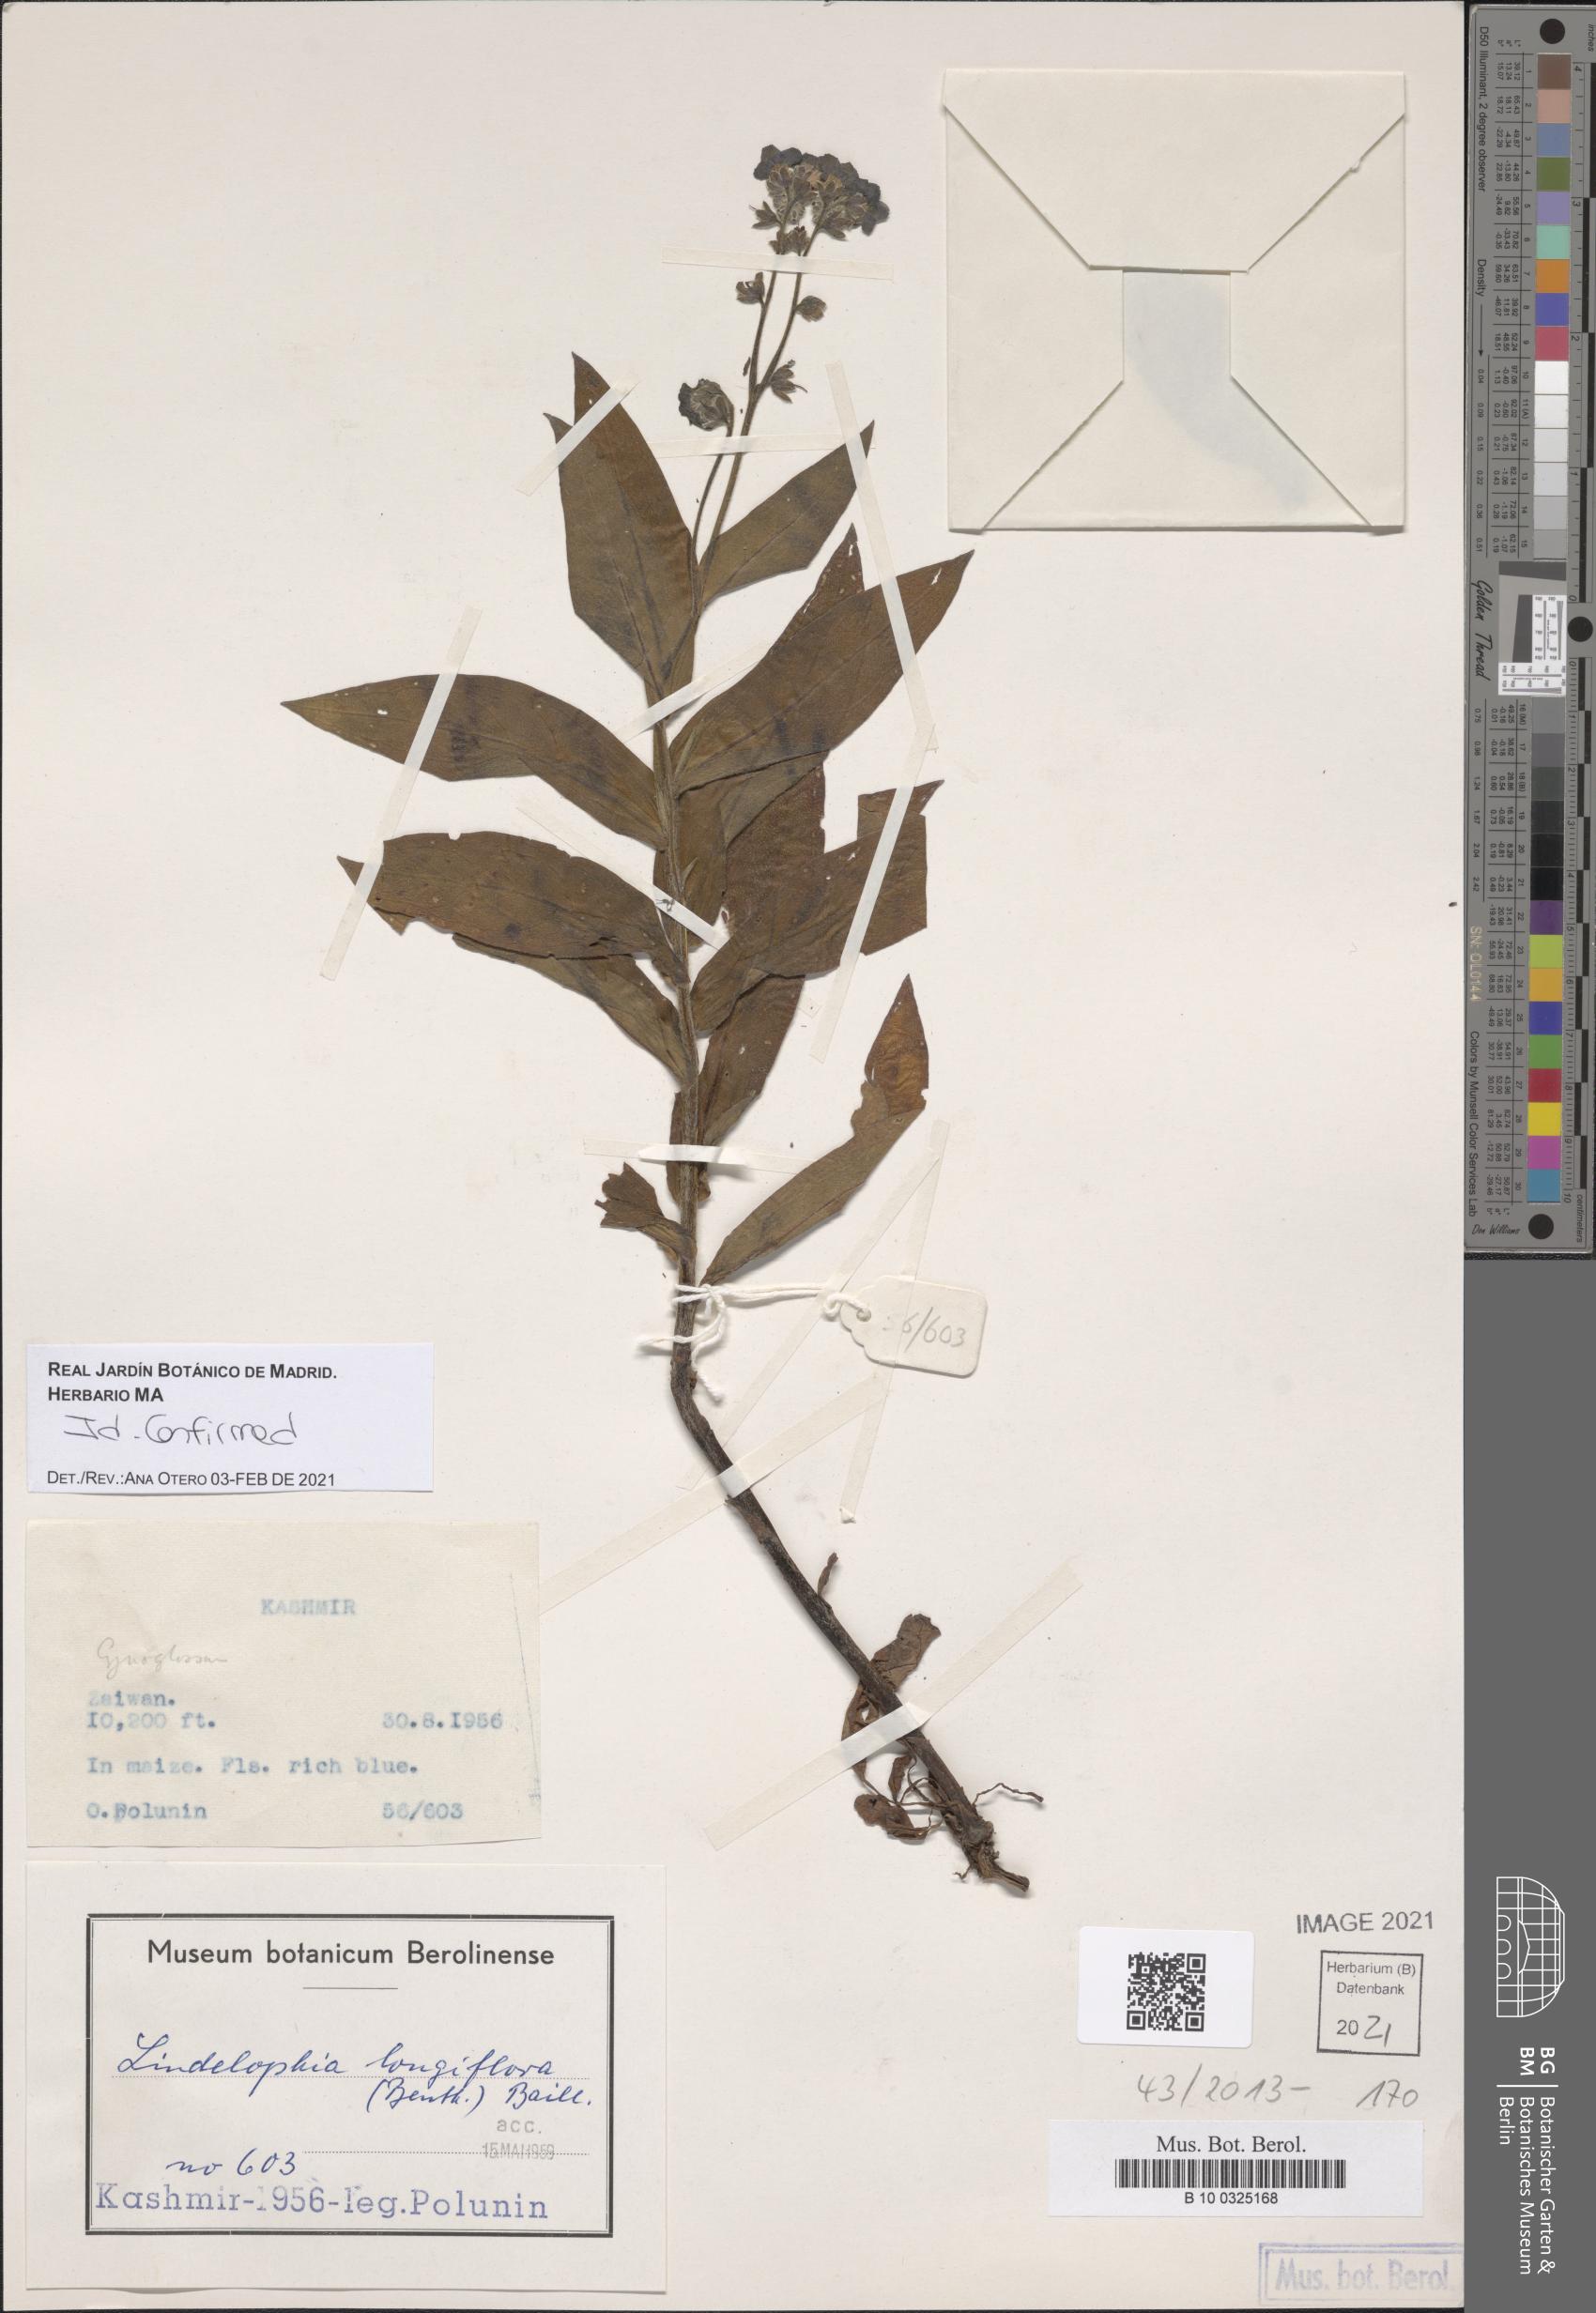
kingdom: Plantae
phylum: Tracheophyta
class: Magnoliopsida
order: Boraginales
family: Boraginaceae
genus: Lindelofia
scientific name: Lindelofia longiflora
